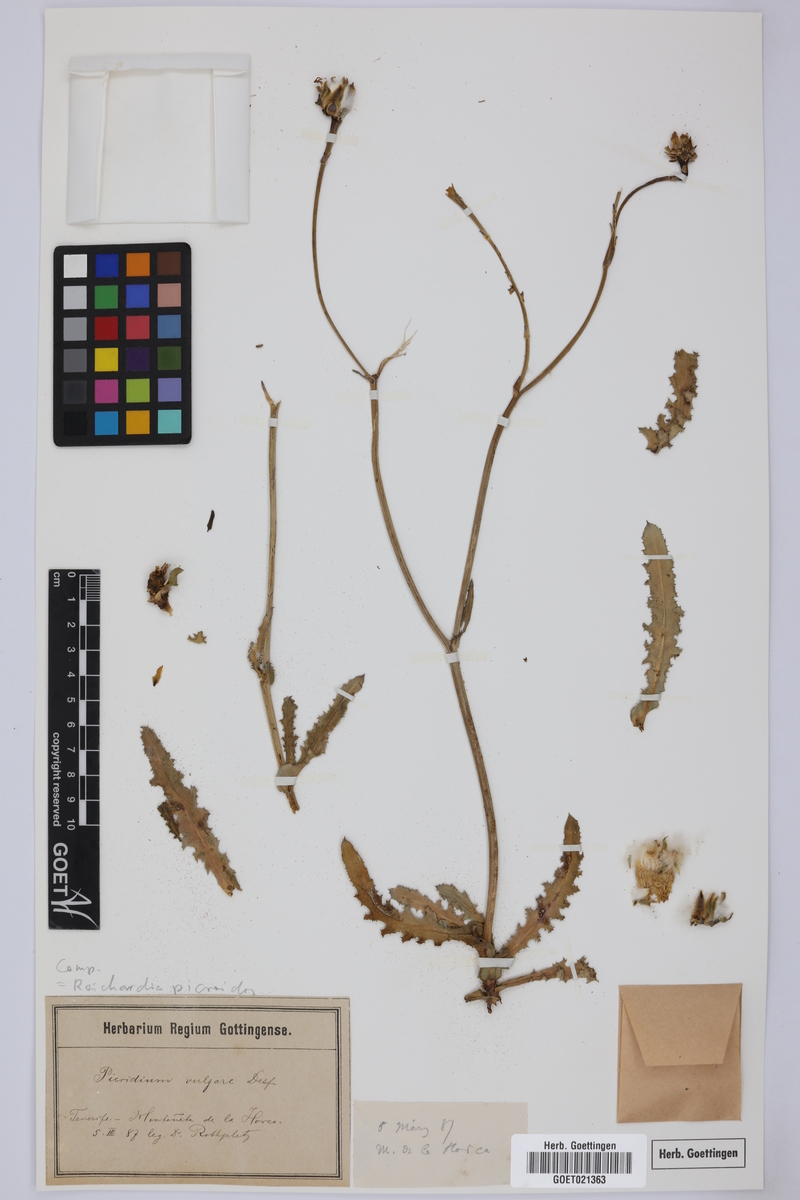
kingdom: Plantae
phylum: Tracheophyta
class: Magnoliopsida
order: Asterales
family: Asteraceae
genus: Reichardia
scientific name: Reichardia picroides
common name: Common brighteyes
